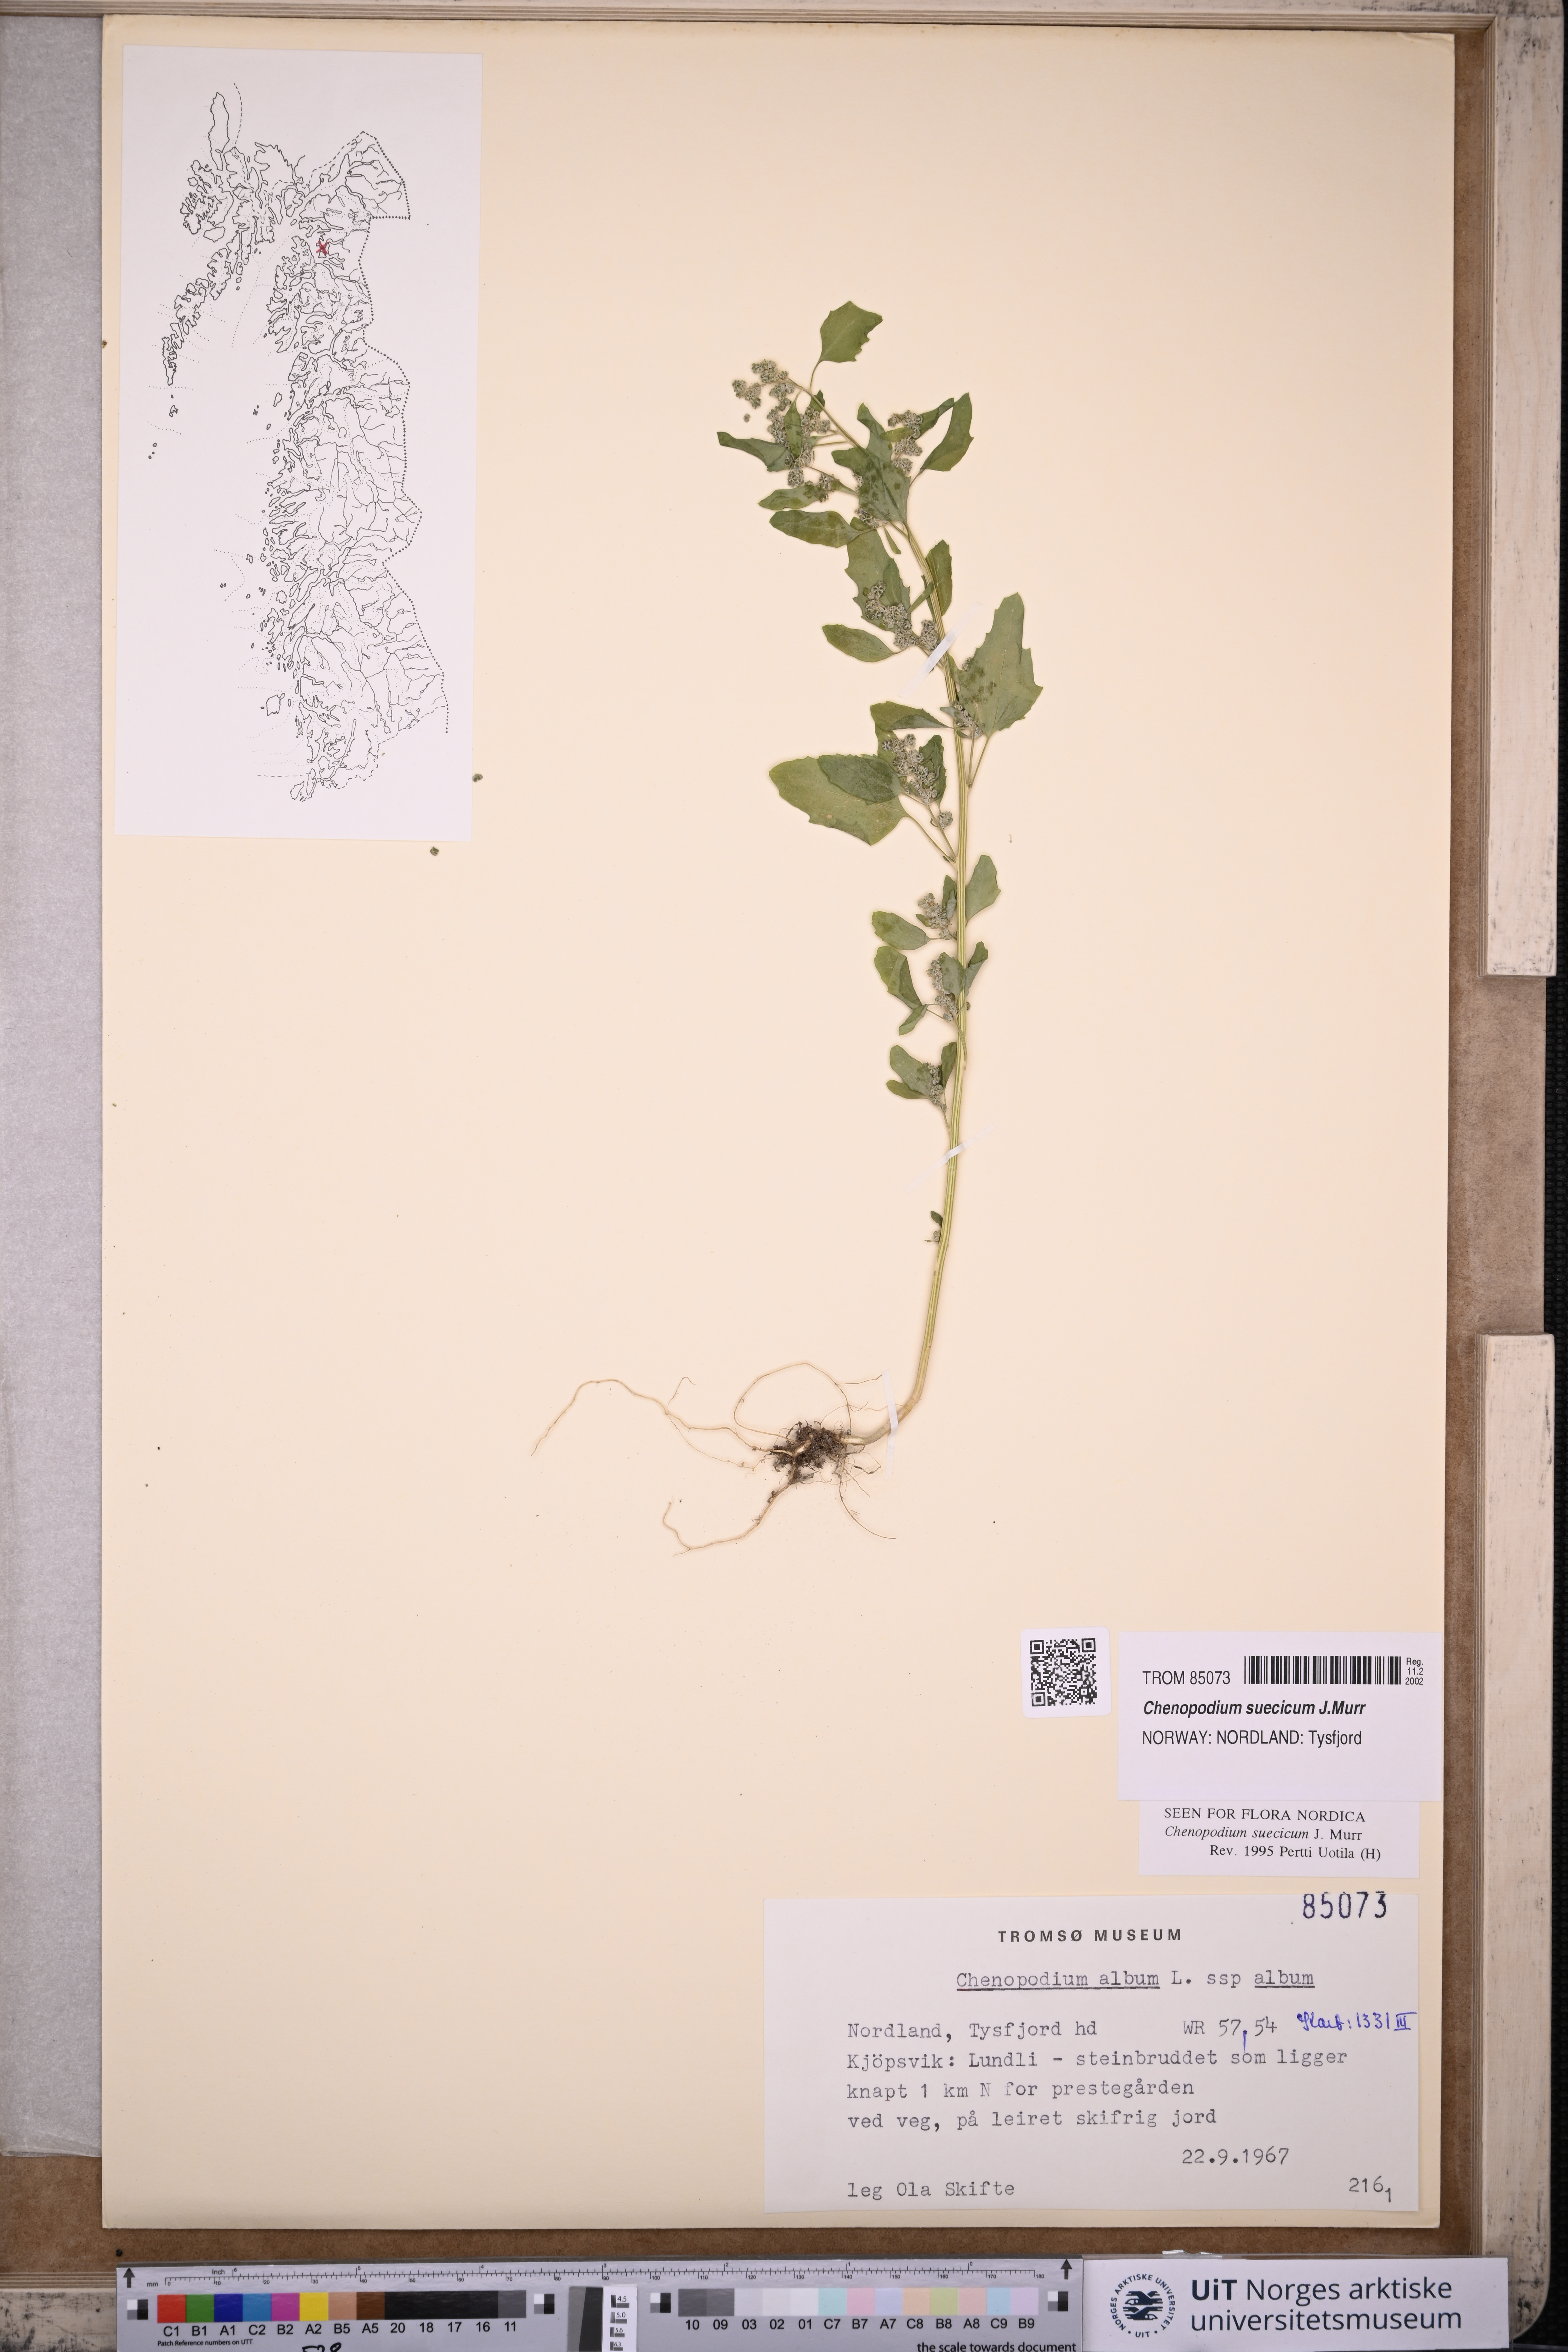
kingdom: Plantae
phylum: Tracheophyta
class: Magnoliopsida
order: Caryophyllales
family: Amaranthaceae
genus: Chenopodium
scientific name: Chenopodium suecicum
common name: Swedish goosefoot
